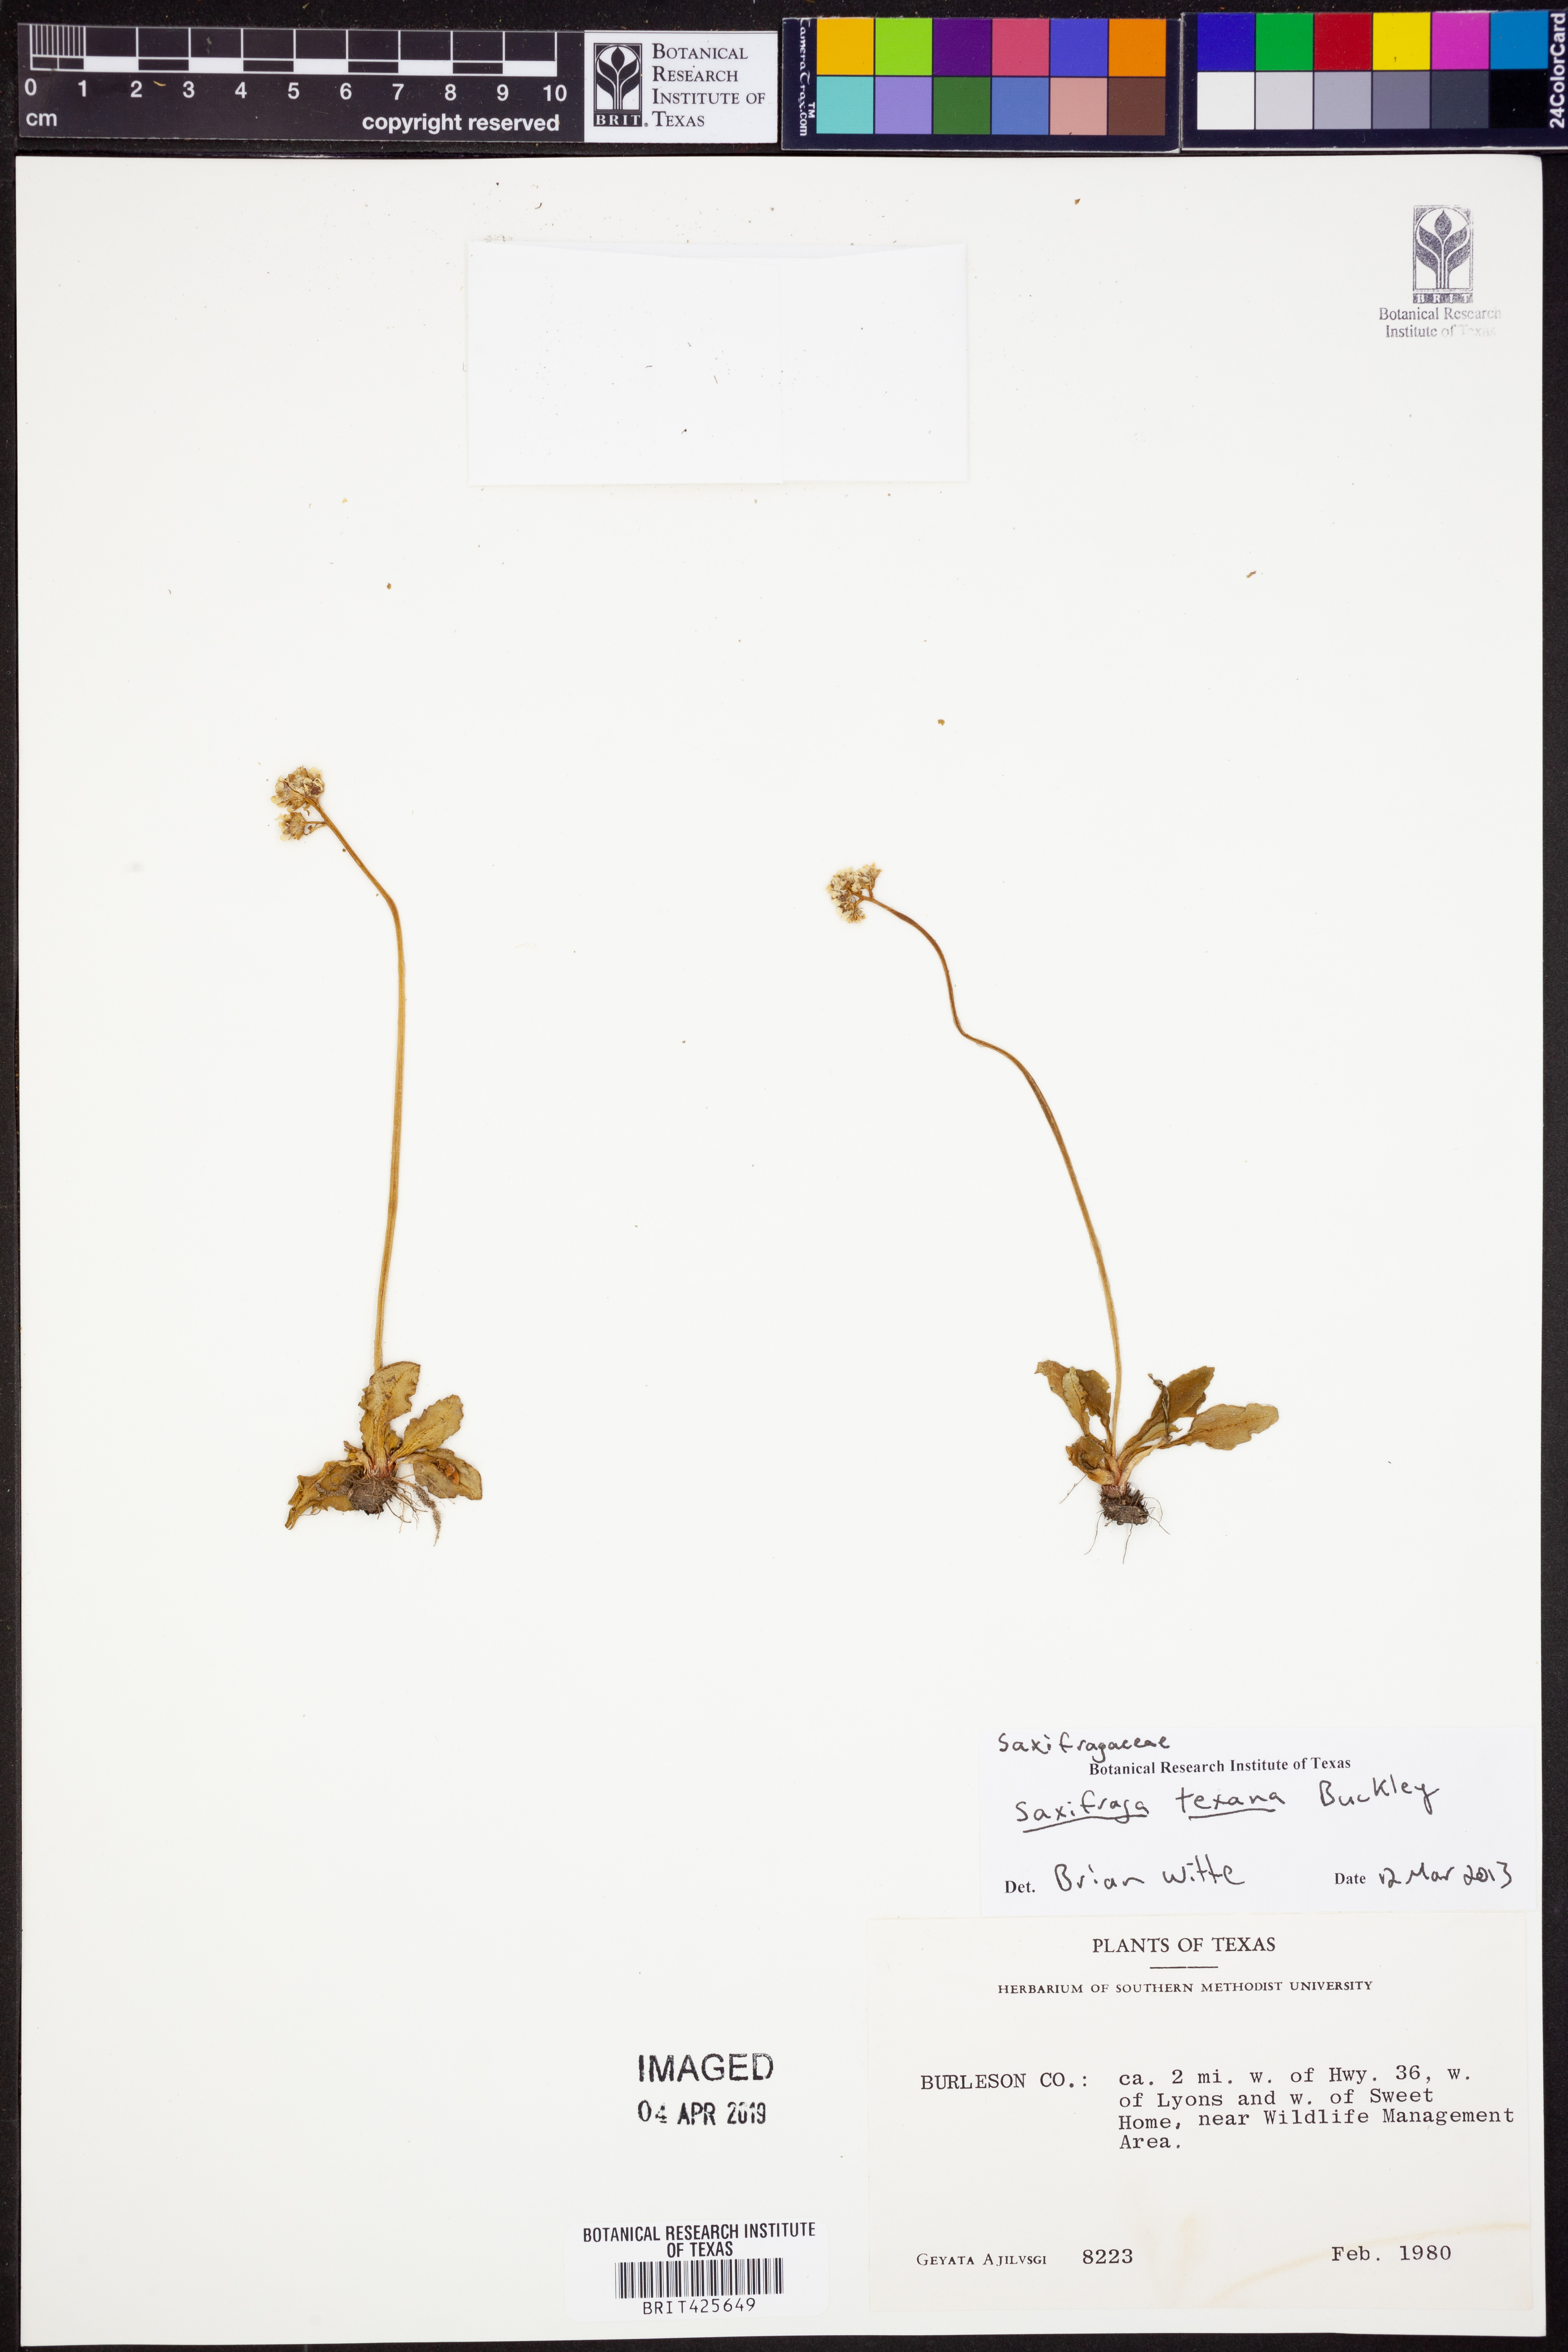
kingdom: Plantae
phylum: Tracheophyta
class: Magnoliopsida
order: Saxifragales
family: Saxifragaceae
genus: Micranthes
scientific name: Micranthes texana
